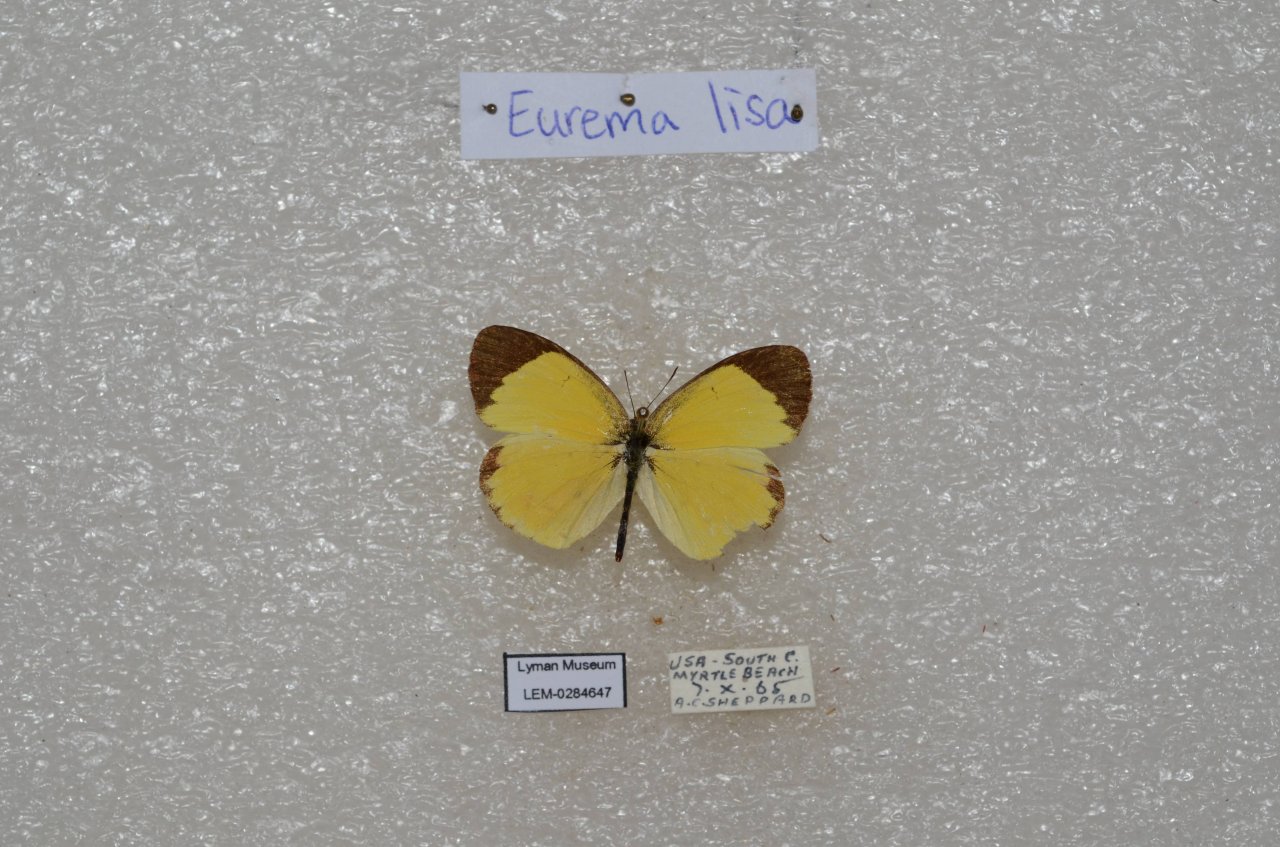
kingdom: Animalia
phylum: Arthropoda
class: Insecta
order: Lepidoptera
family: Pieridae
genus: Pyrisitia
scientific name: Pyrisitia lisa
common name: Little Yellow
